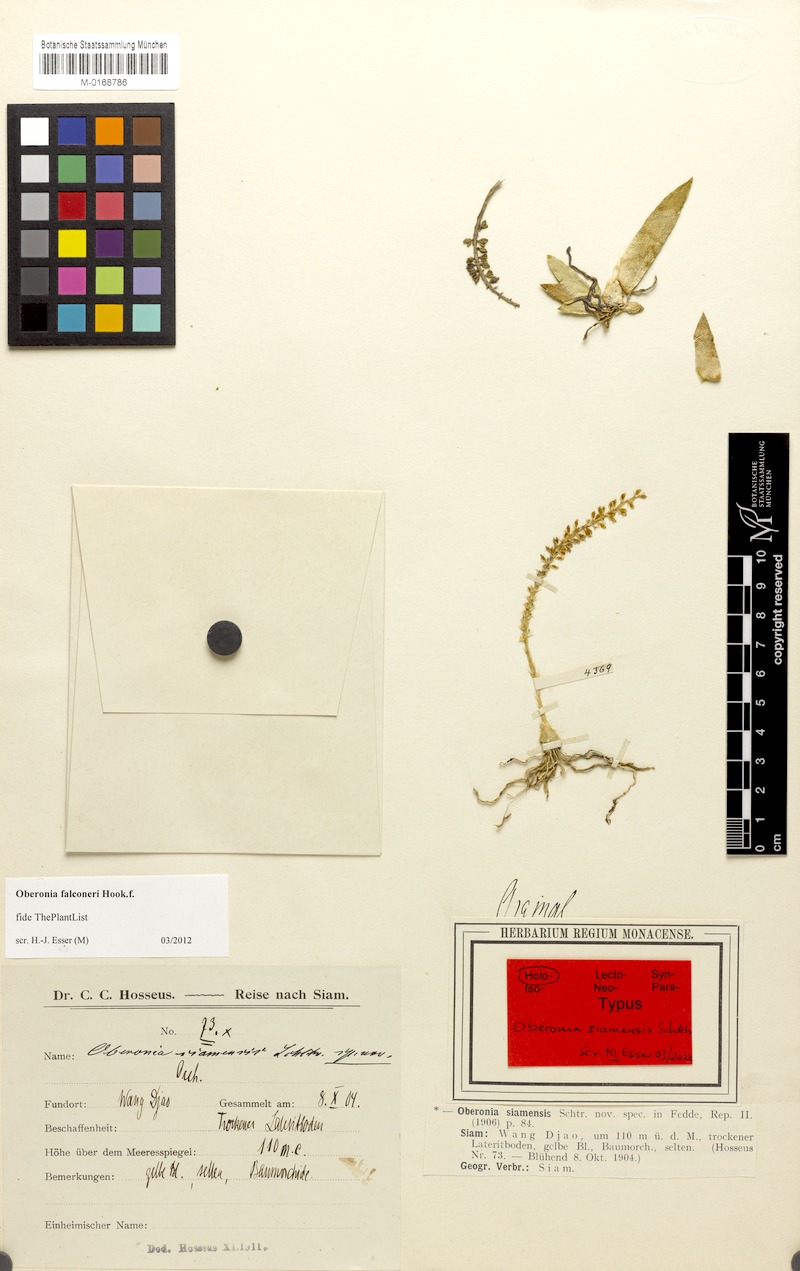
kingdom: Plantae
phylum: Tracheophyta
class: Liliopsida
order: Asparagales
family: Orchidaceae
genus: Oberonia
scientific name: Oberonia falconeri
